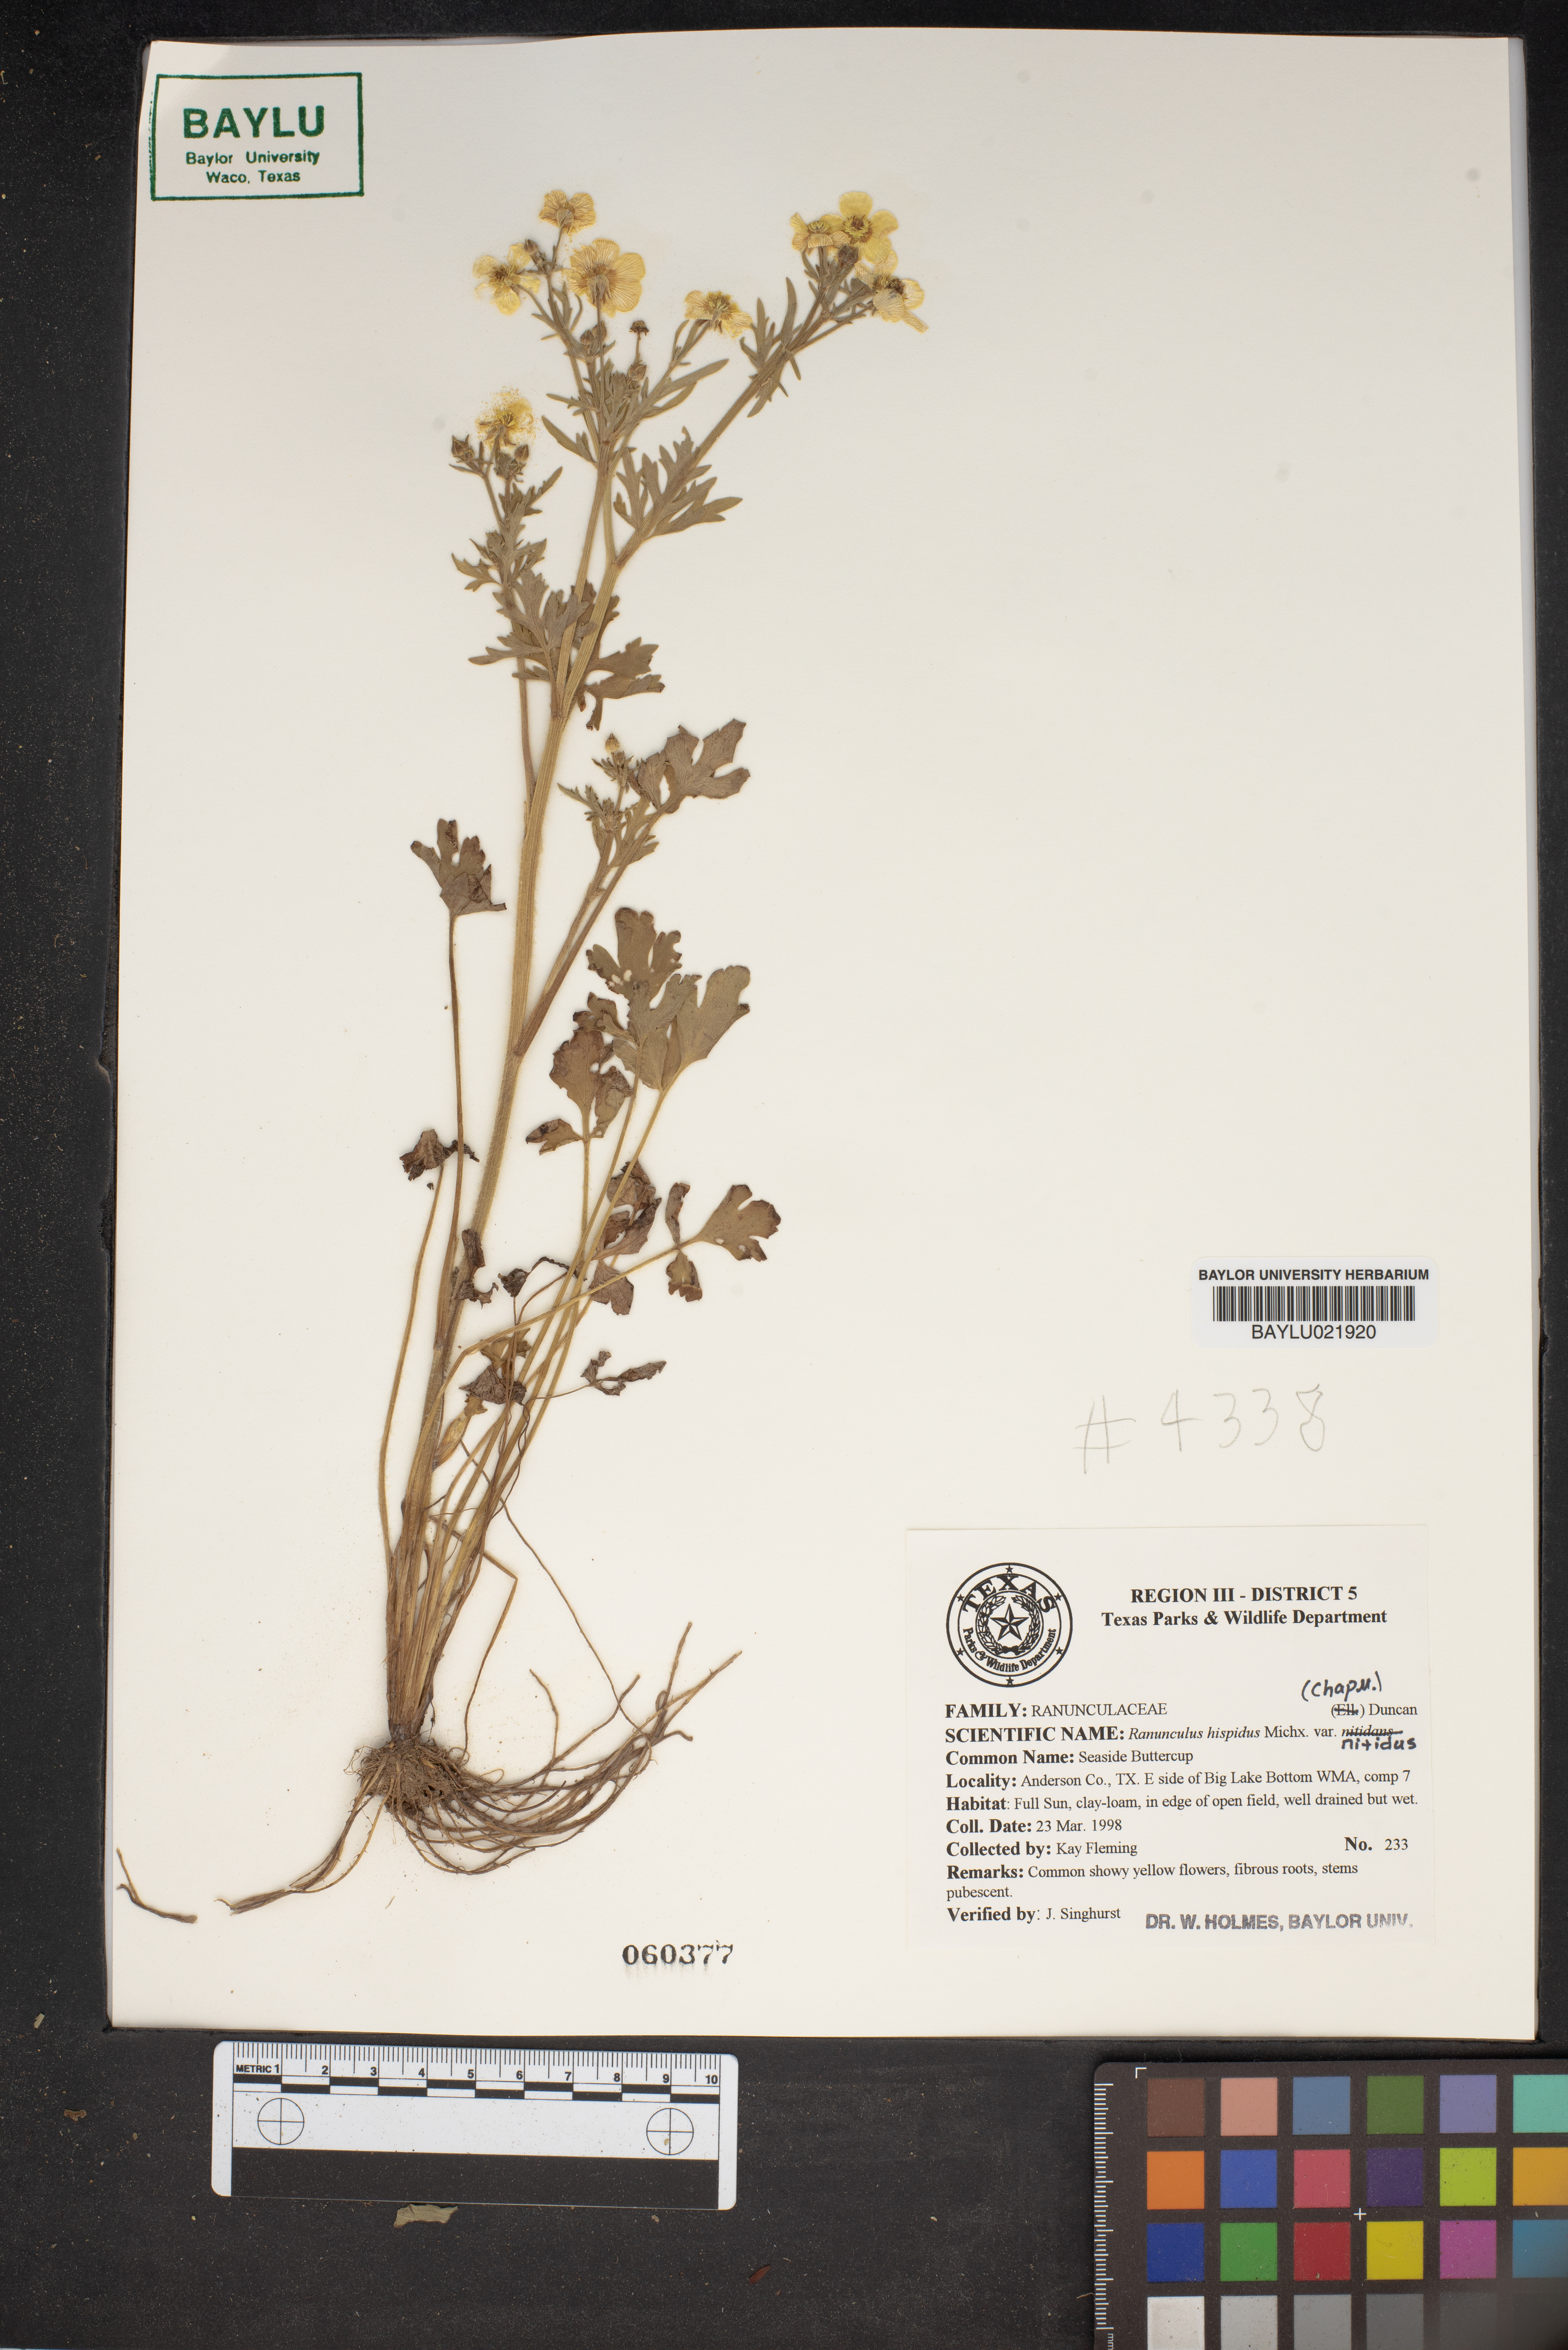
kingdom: Plantae
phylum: Tracheophyta
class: Magnoliopsida
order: Ranunculales
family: Ranunculaceae
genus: Ranunculus
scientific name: Ranunculus hispidus
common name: Bristly buttercup
